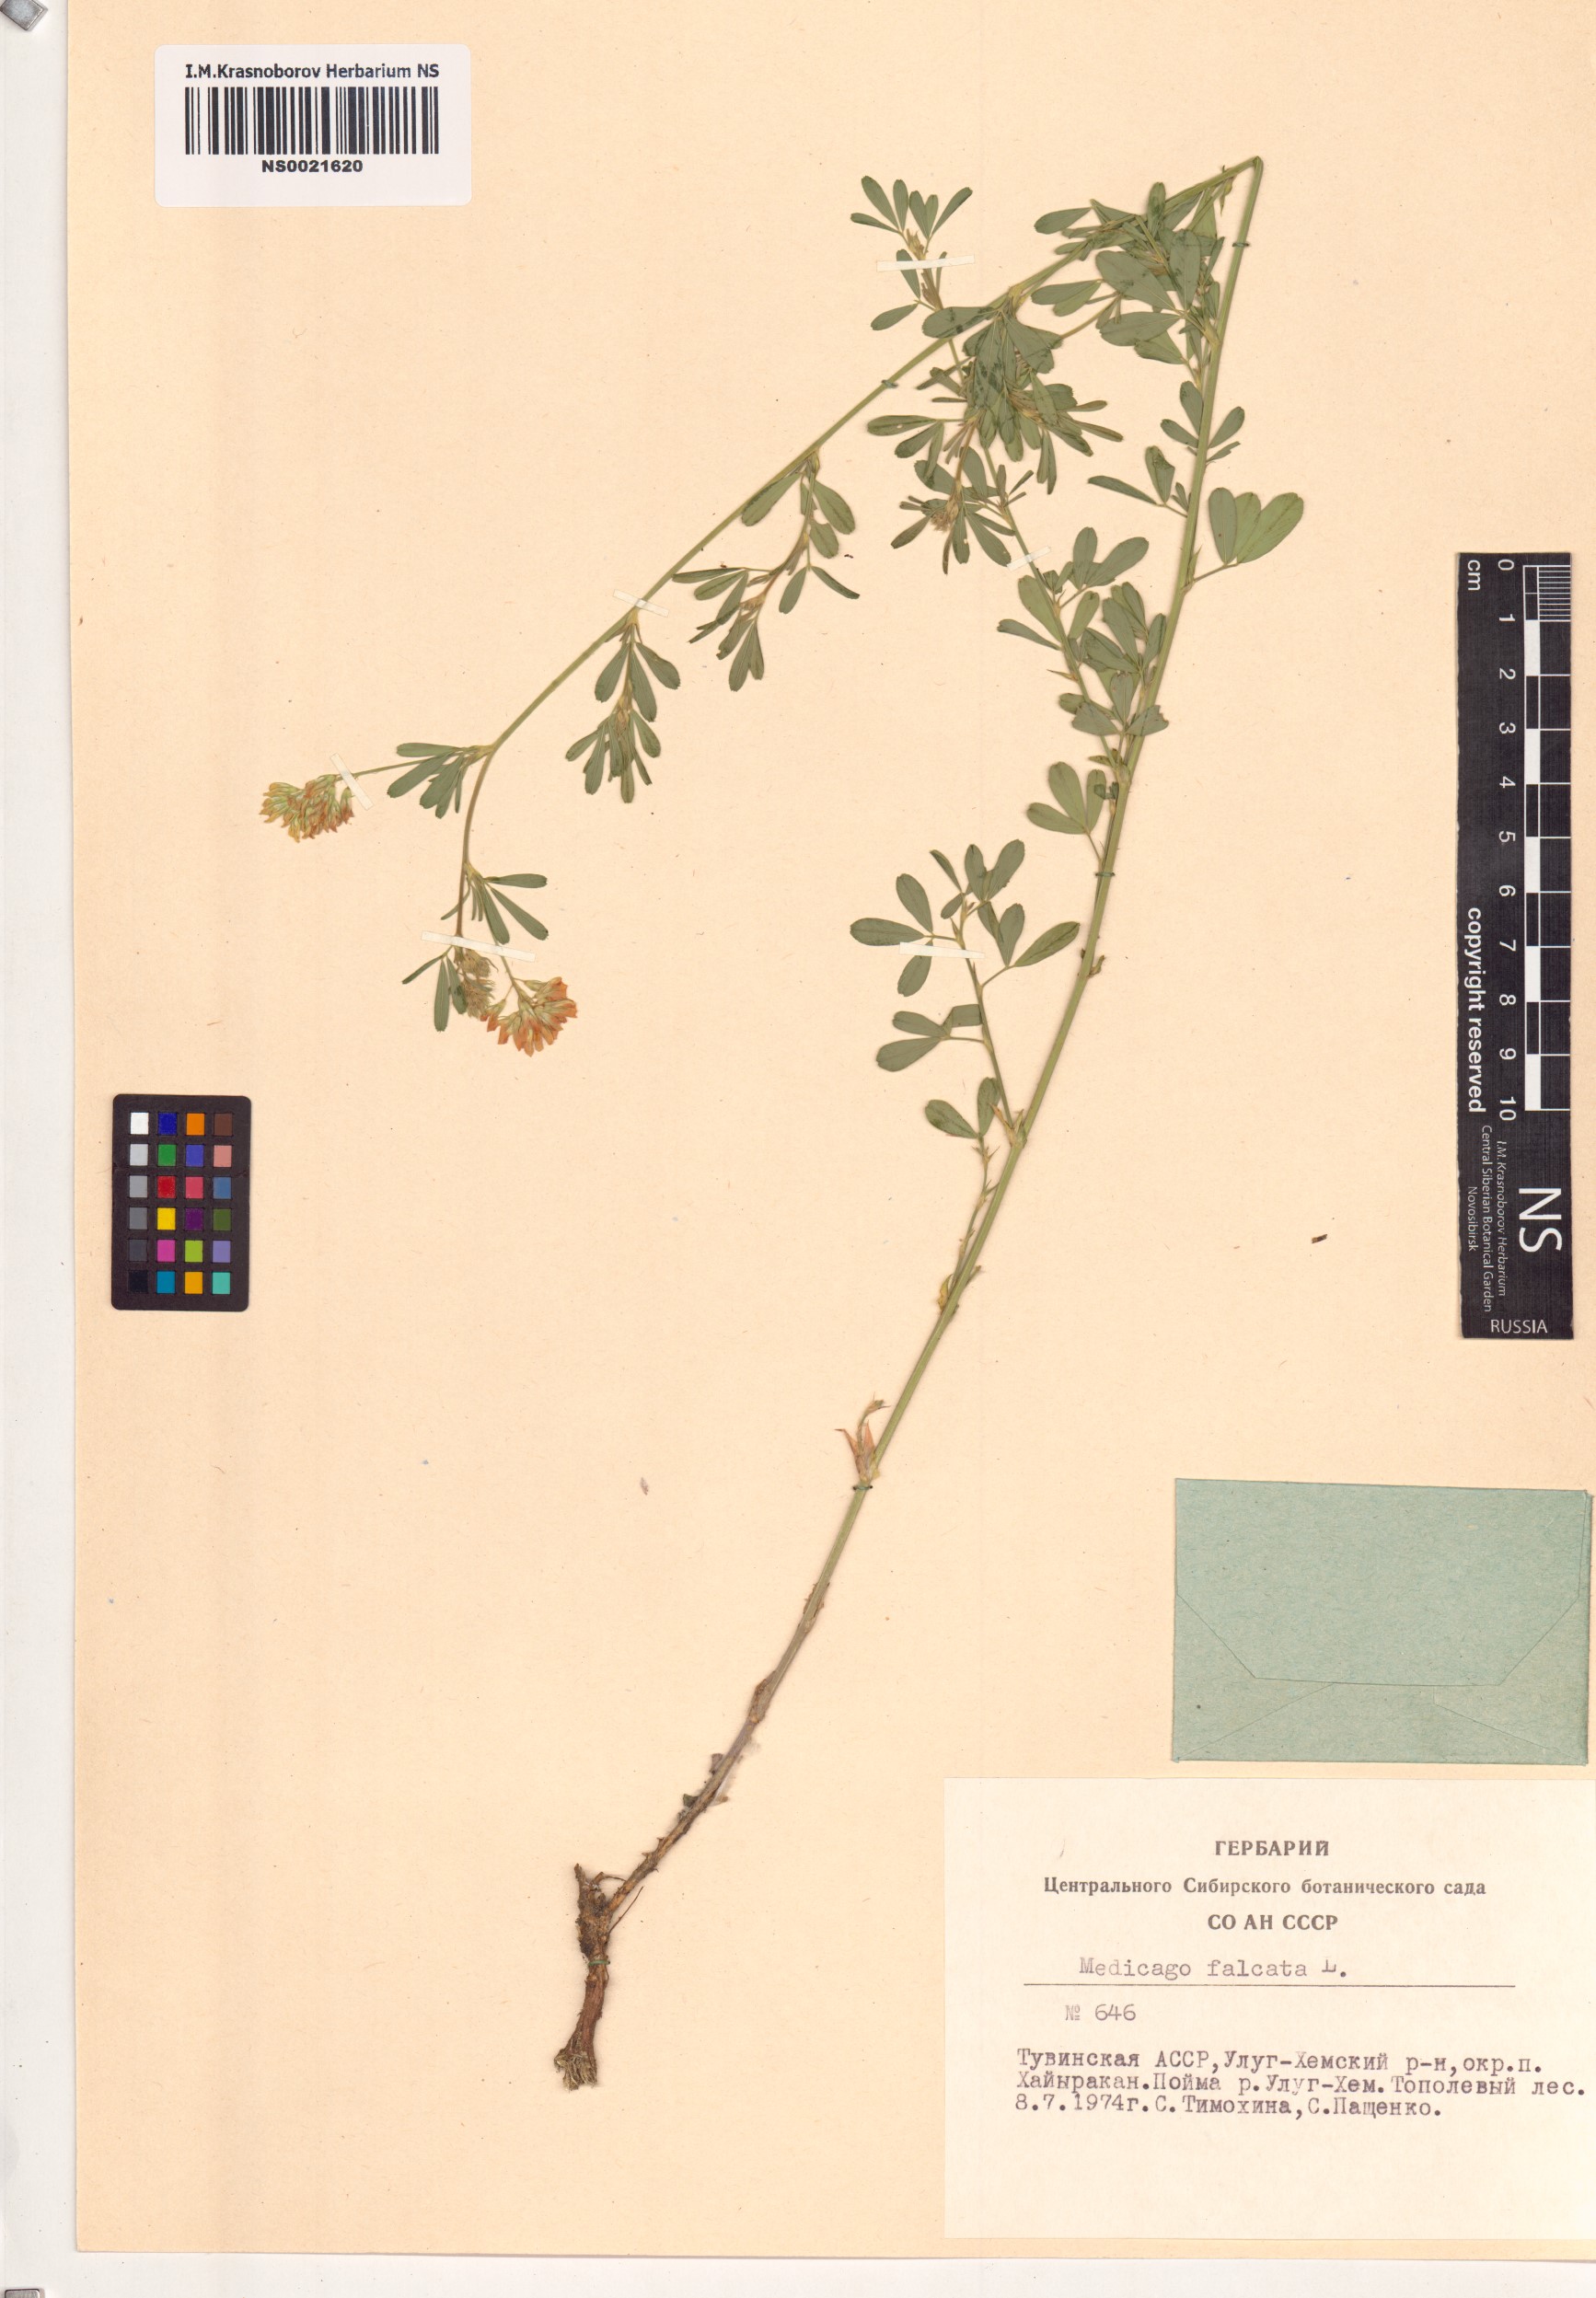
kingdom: Plantae
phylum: Tracheophyta
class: Magnoliopsida
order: Fabales
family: Fabaceae
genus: Medicago
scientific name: Medicago falcata
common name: Sickle medick
